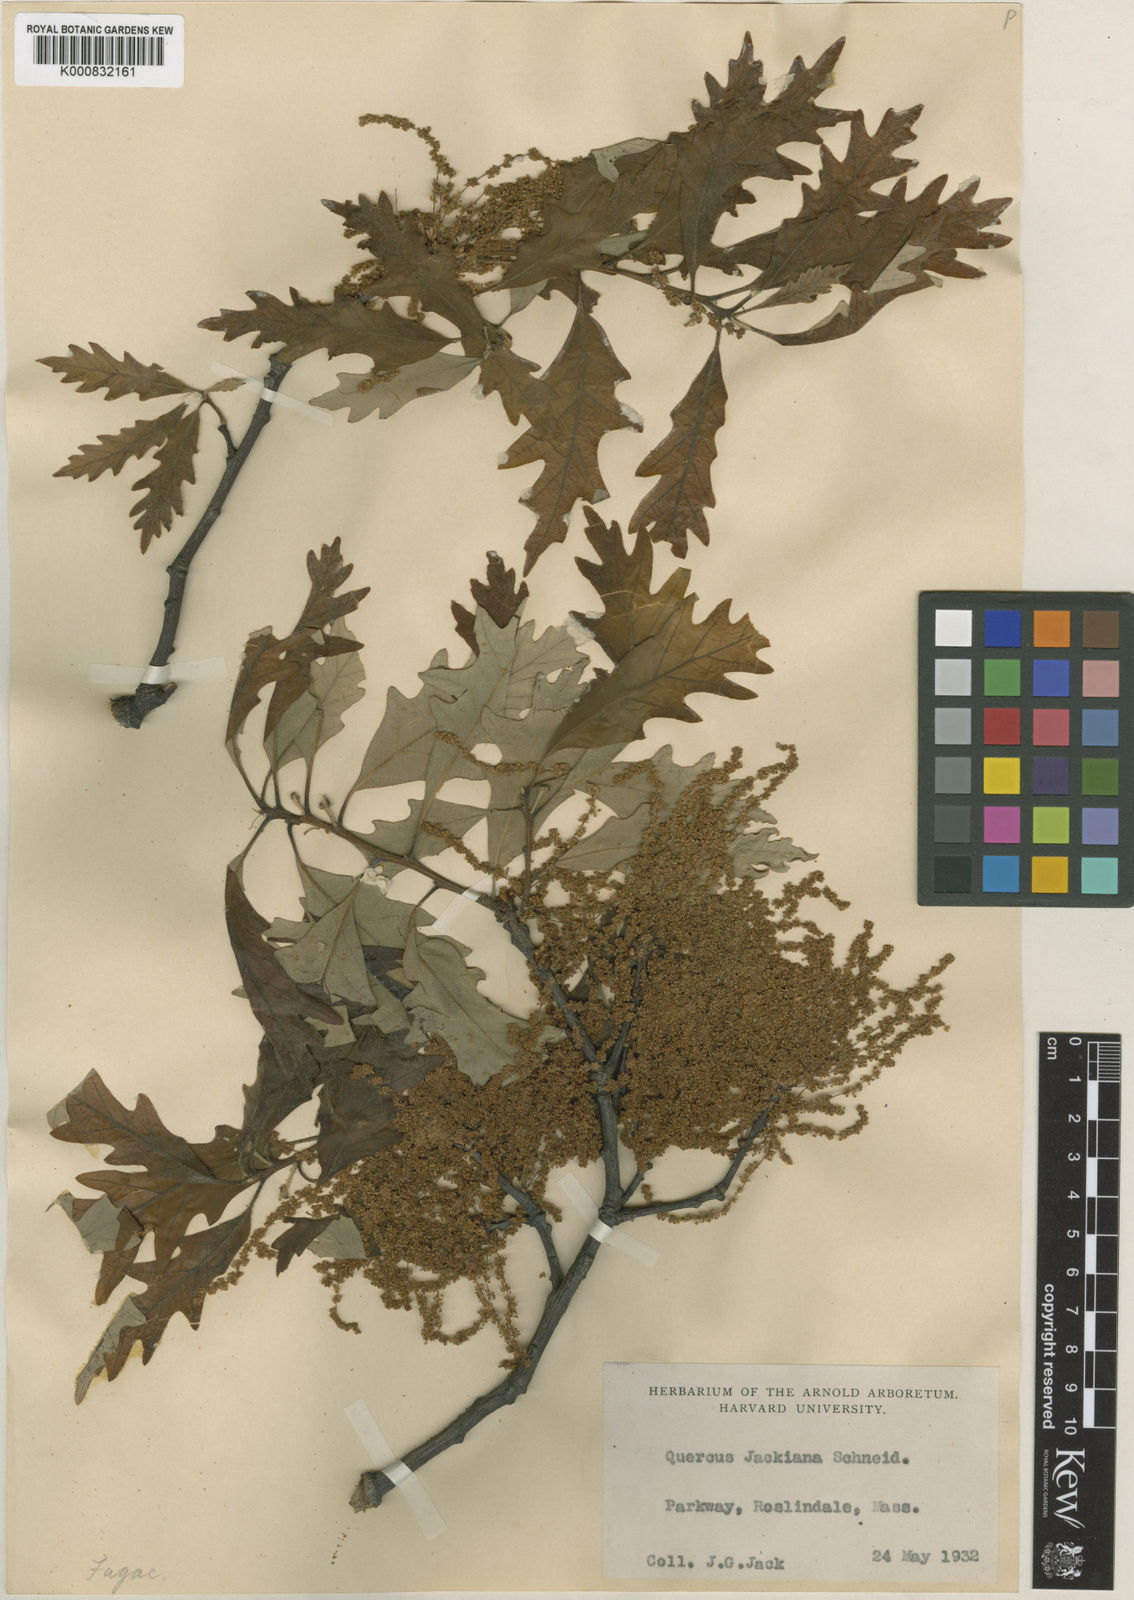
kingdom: Plantae
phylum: Tracheophyta
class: Magnoliopsida
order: Fagales
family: Fagaceae
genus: Quercus
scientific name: Quercus jackiana
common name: Jack's oak
